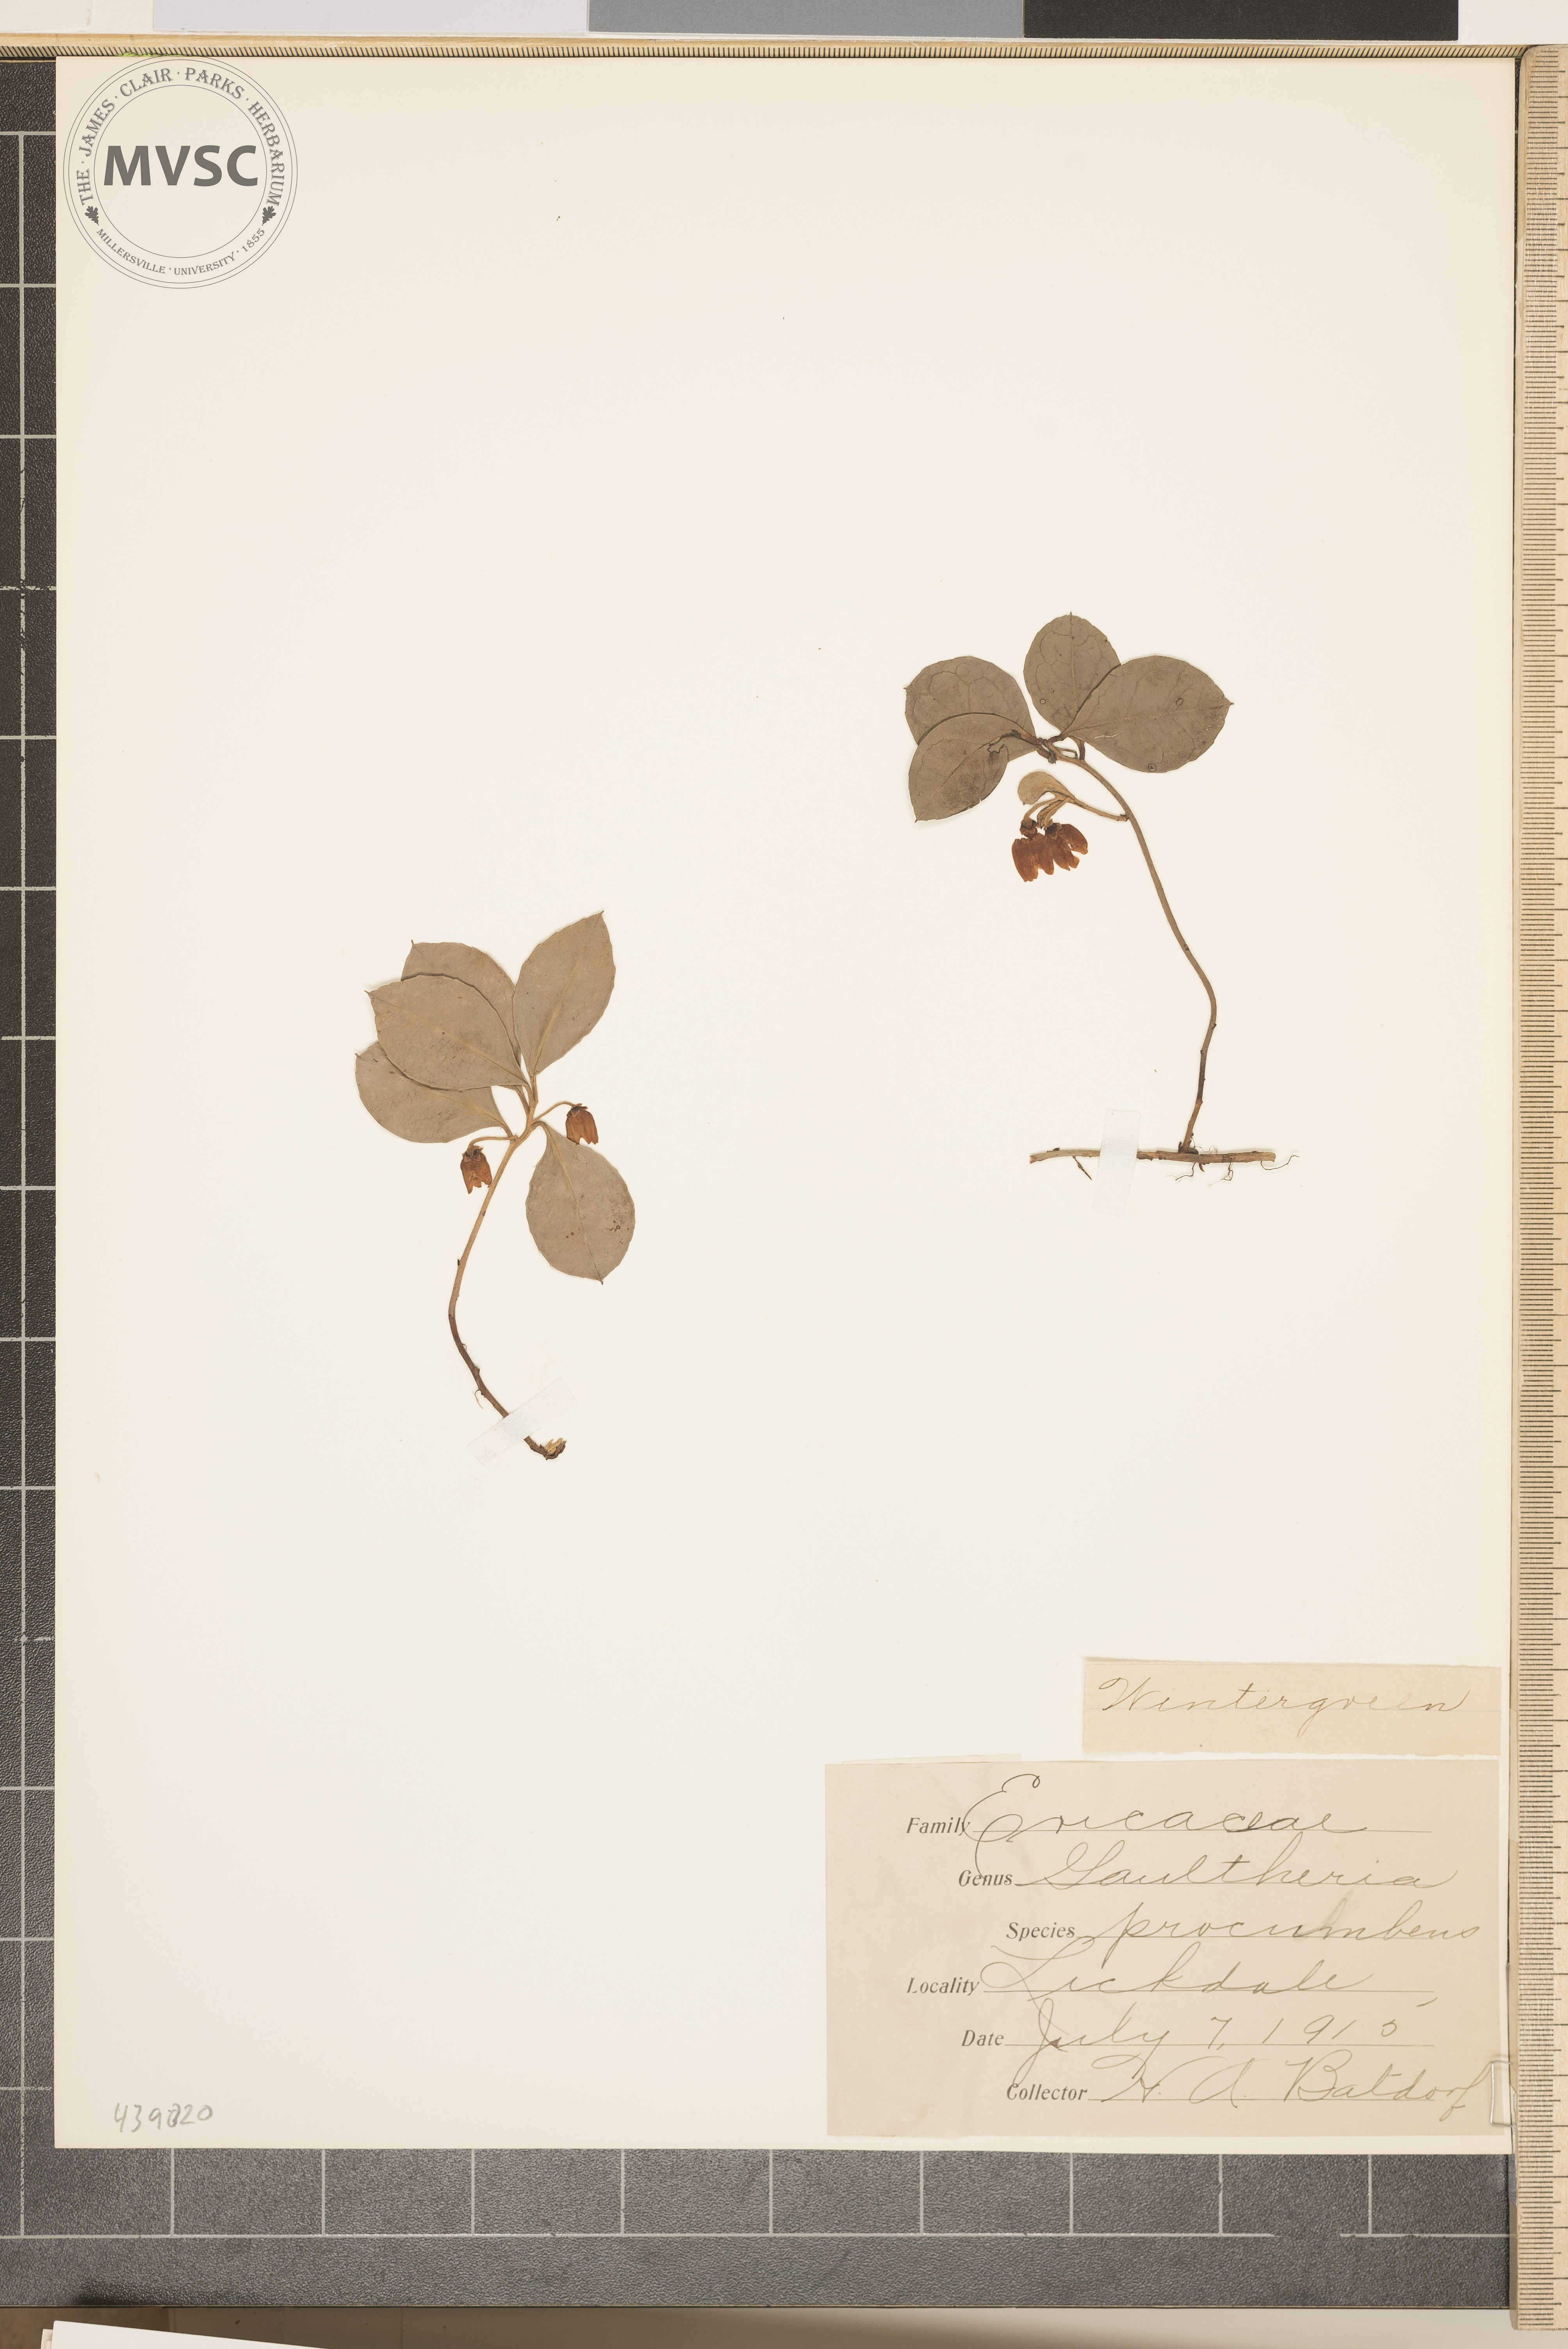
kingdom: Plantae
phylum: Tracheophyta
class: Magnoliopsida
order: Ericales
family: Ericaceae
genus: Gaultheria
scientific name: Gaultheria procumbens
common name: Wintergreen
